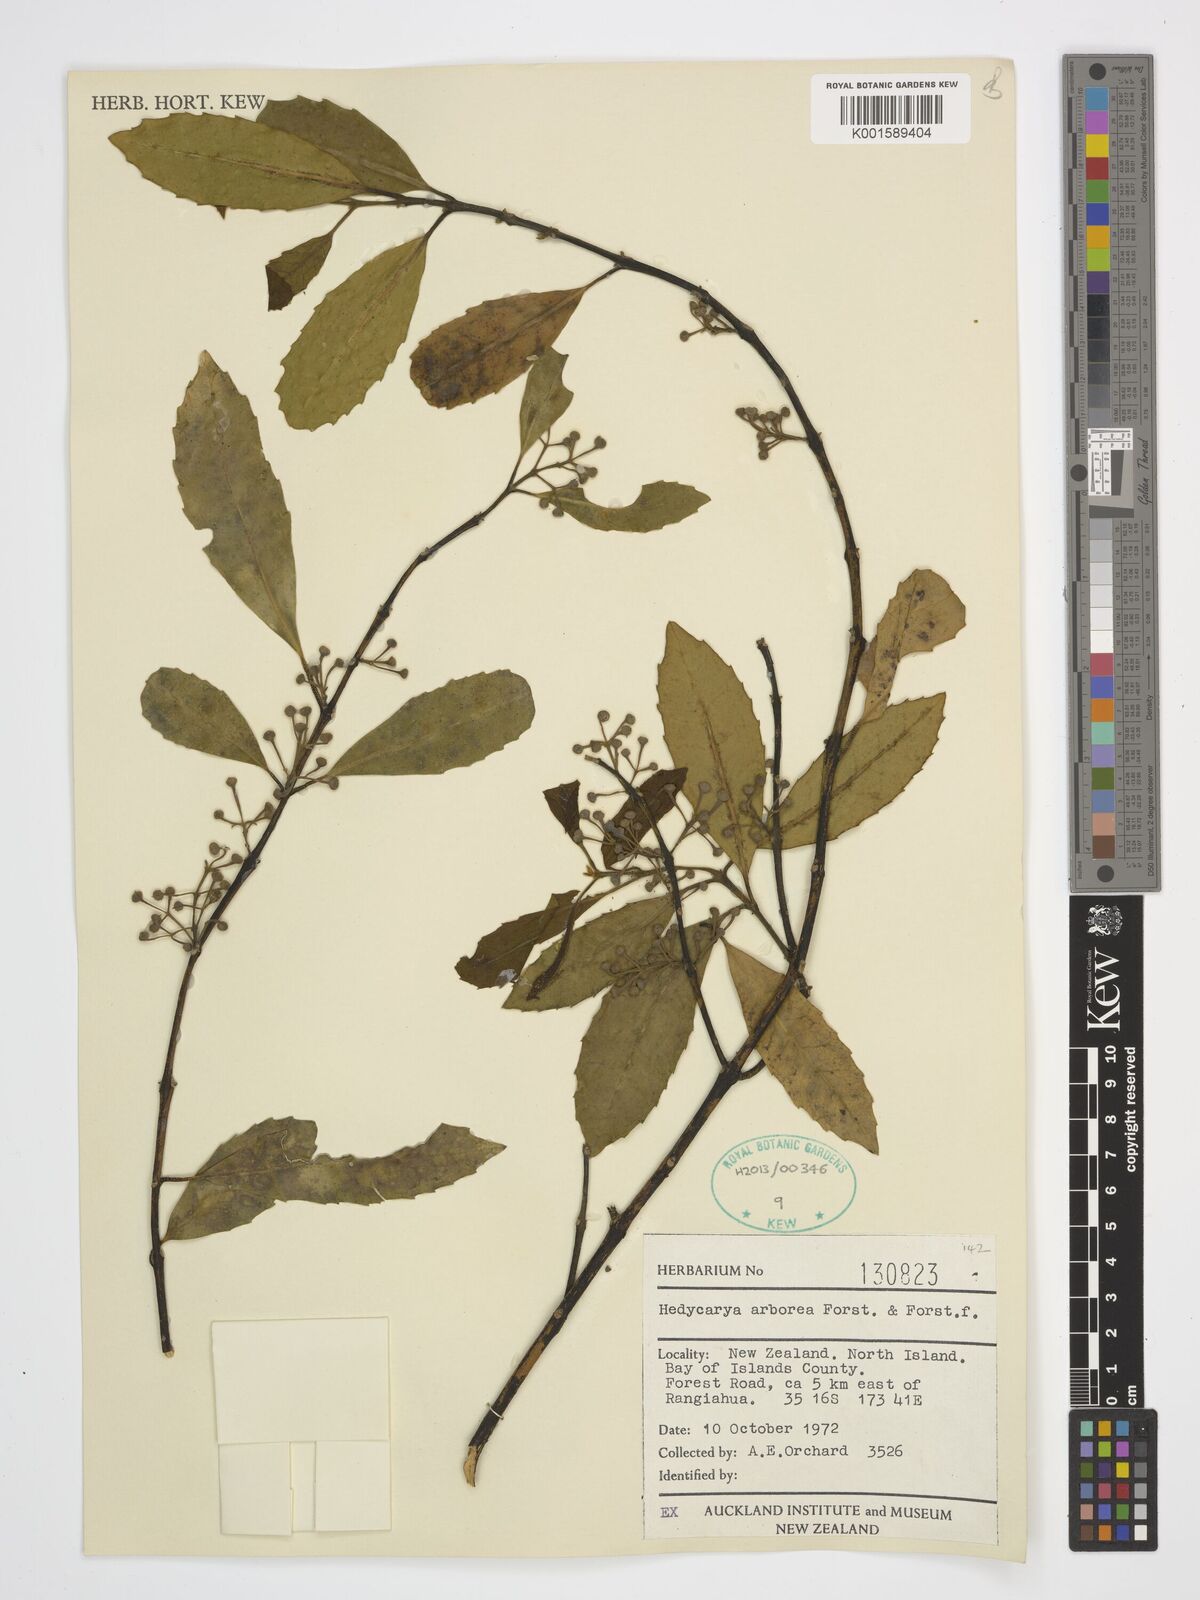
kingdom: Plantae
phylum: Tracheophyta
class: Magnoliopsida
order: Laurales
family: Monimiaceae
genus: Hedycarya
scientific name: Hedycarya arborea
